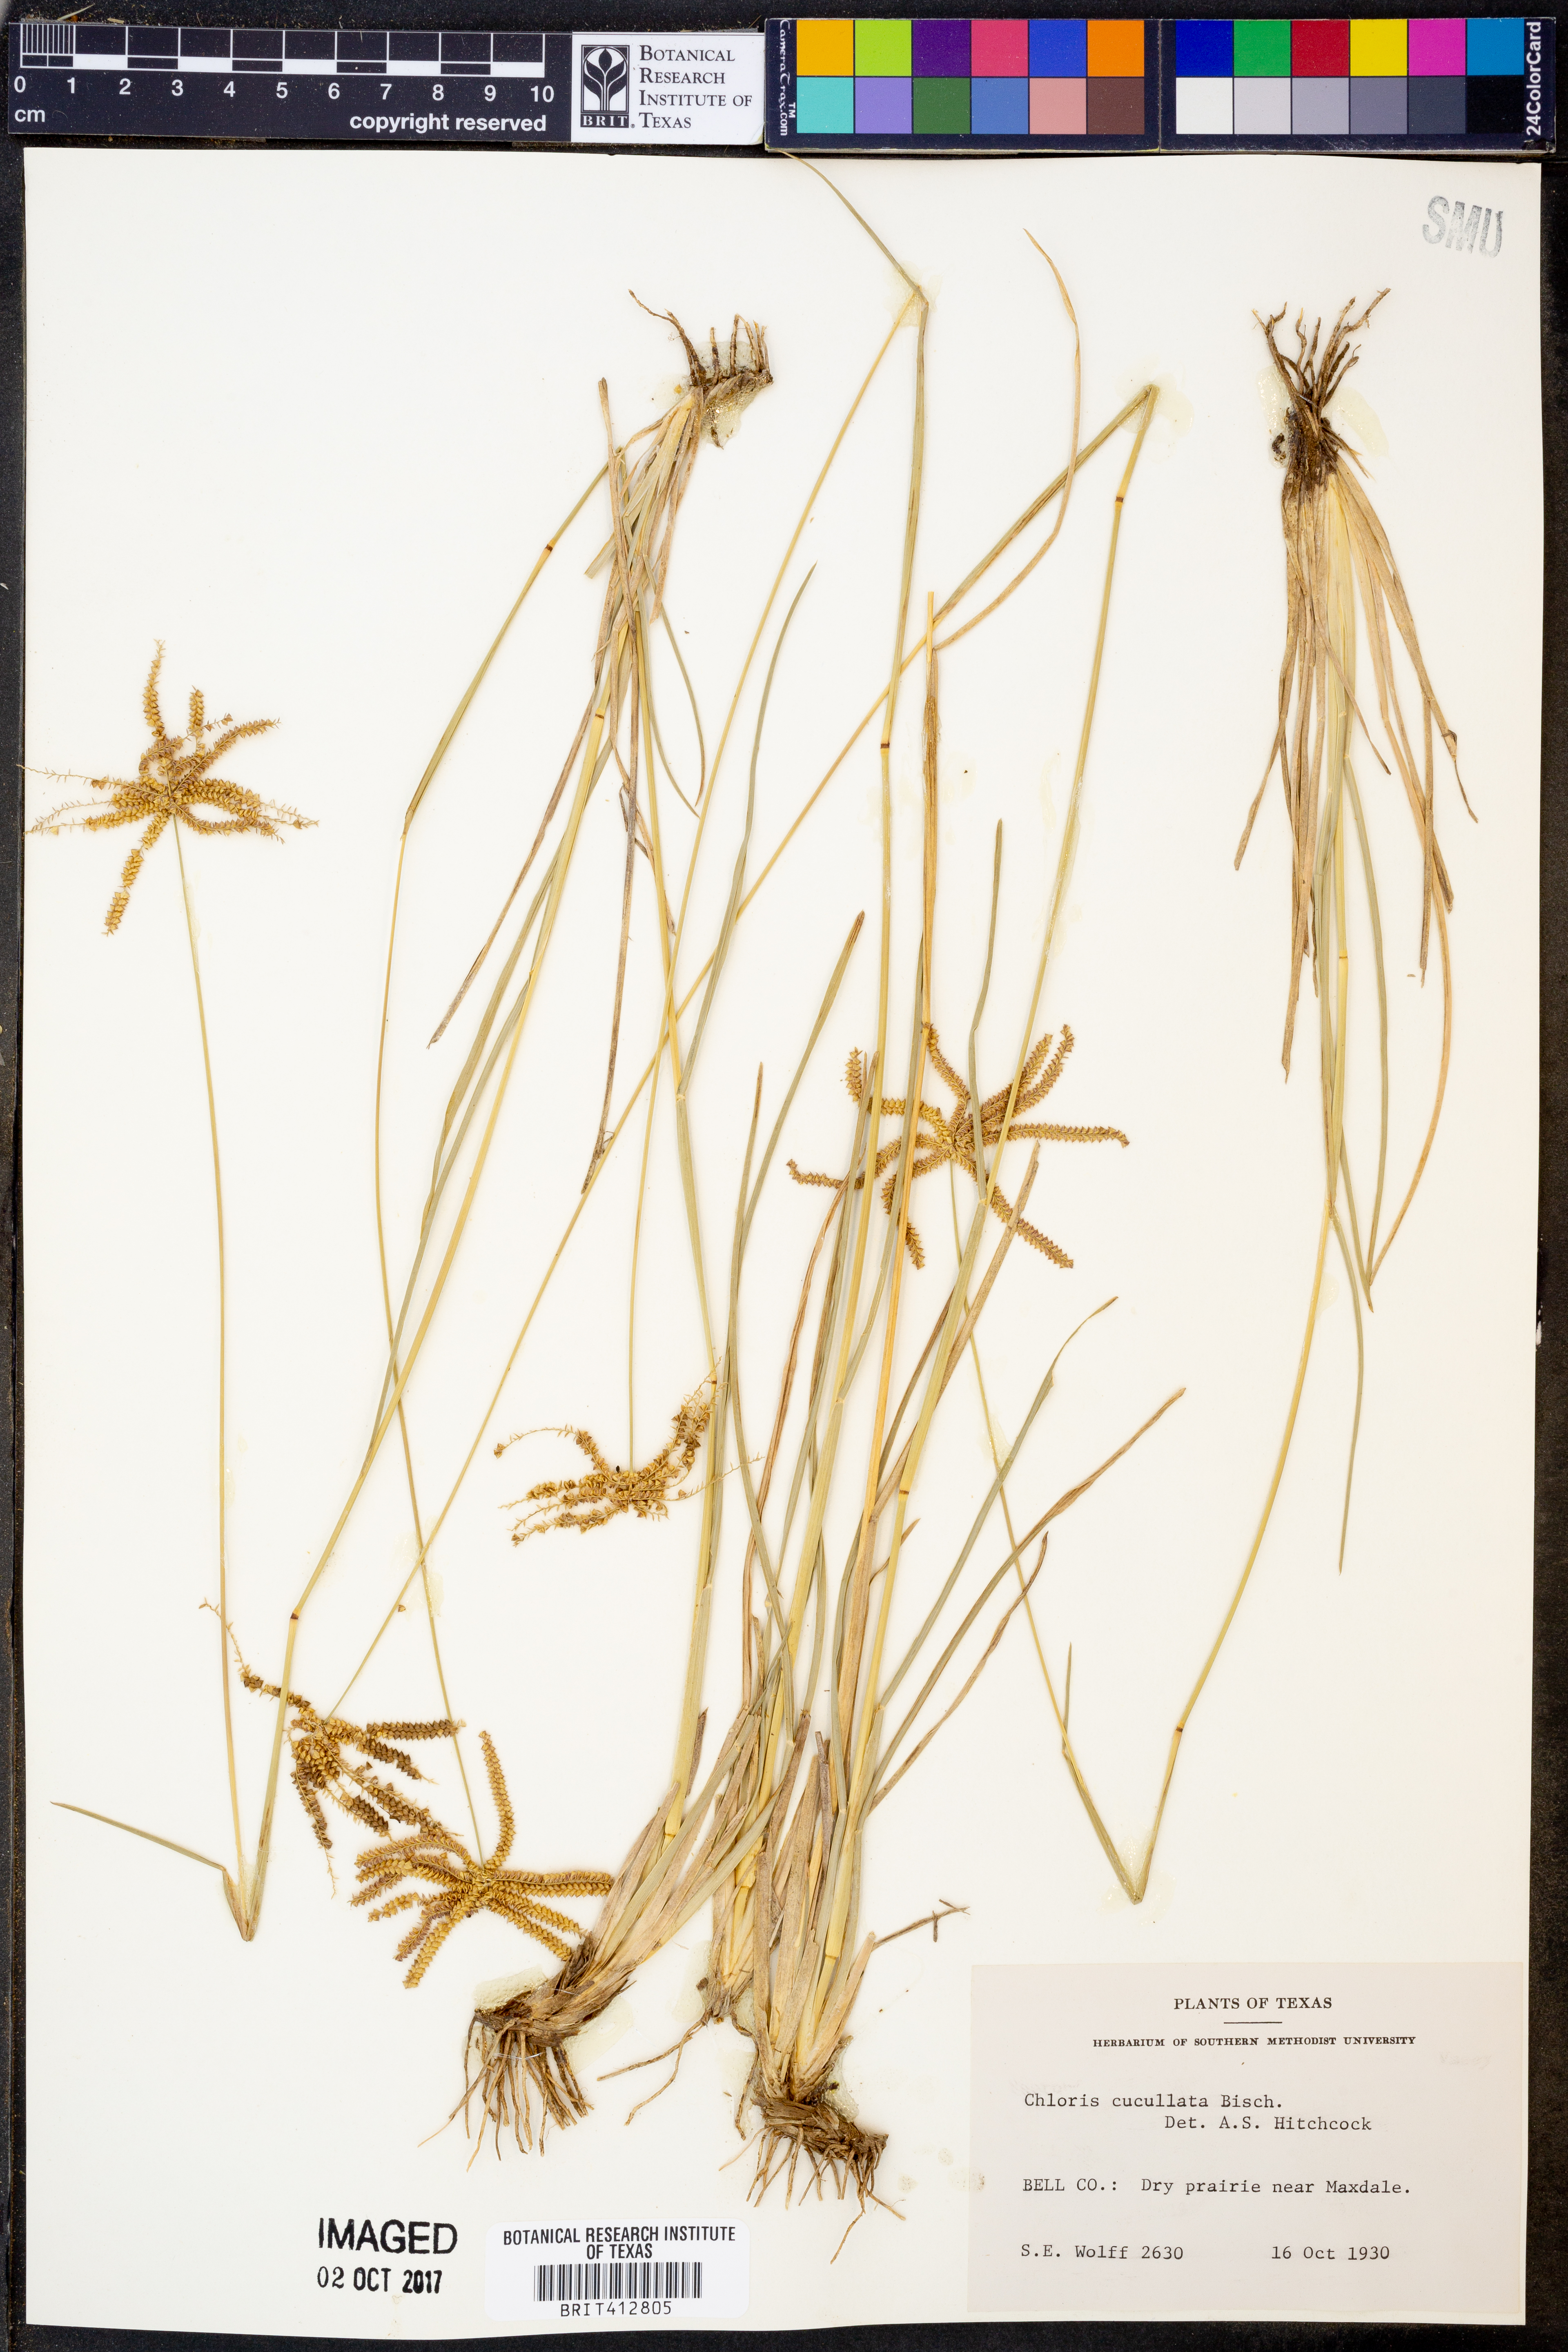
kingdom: Plantae
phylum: Tracheophyta
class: Liliopsida
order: Poales
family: Poaceae
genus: Chloris
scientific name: Chloris cucullata
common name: Hooded windmill grass
